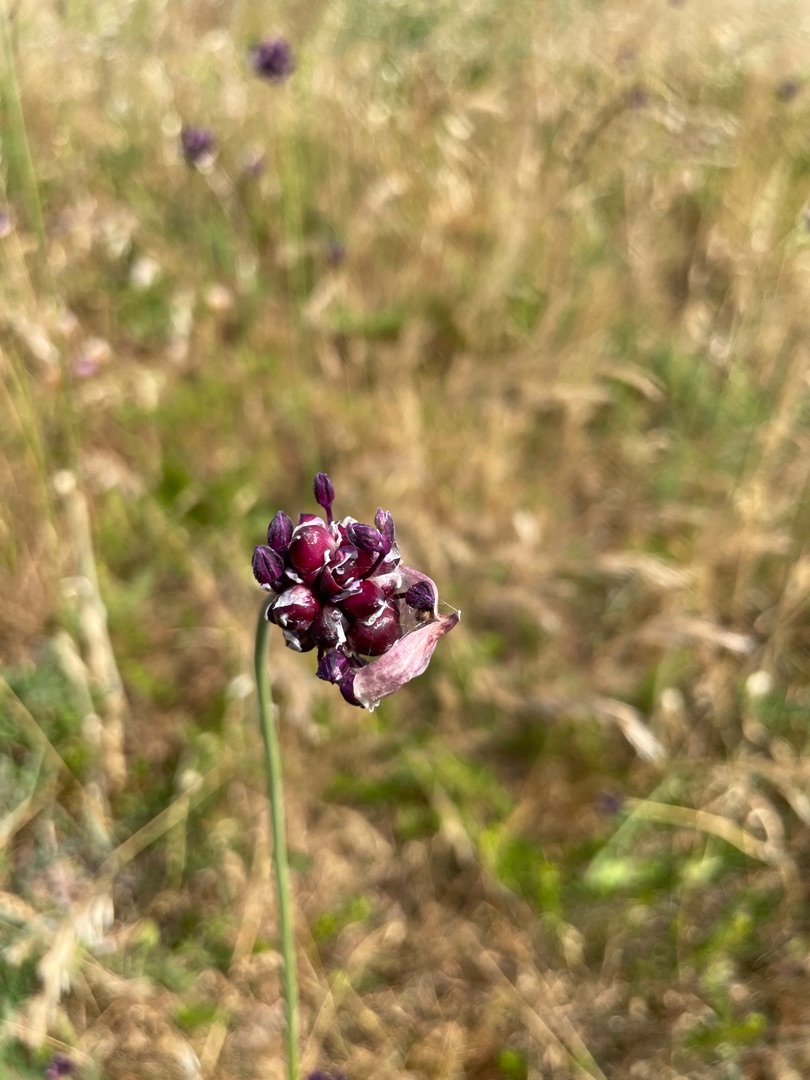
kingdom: Plantae
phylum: Tracheophyta
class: Liliopsida
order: Asparagales
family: Amaryllidaceae
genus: Allium
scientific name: Allium scorodoprasum
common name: Skov-løg
